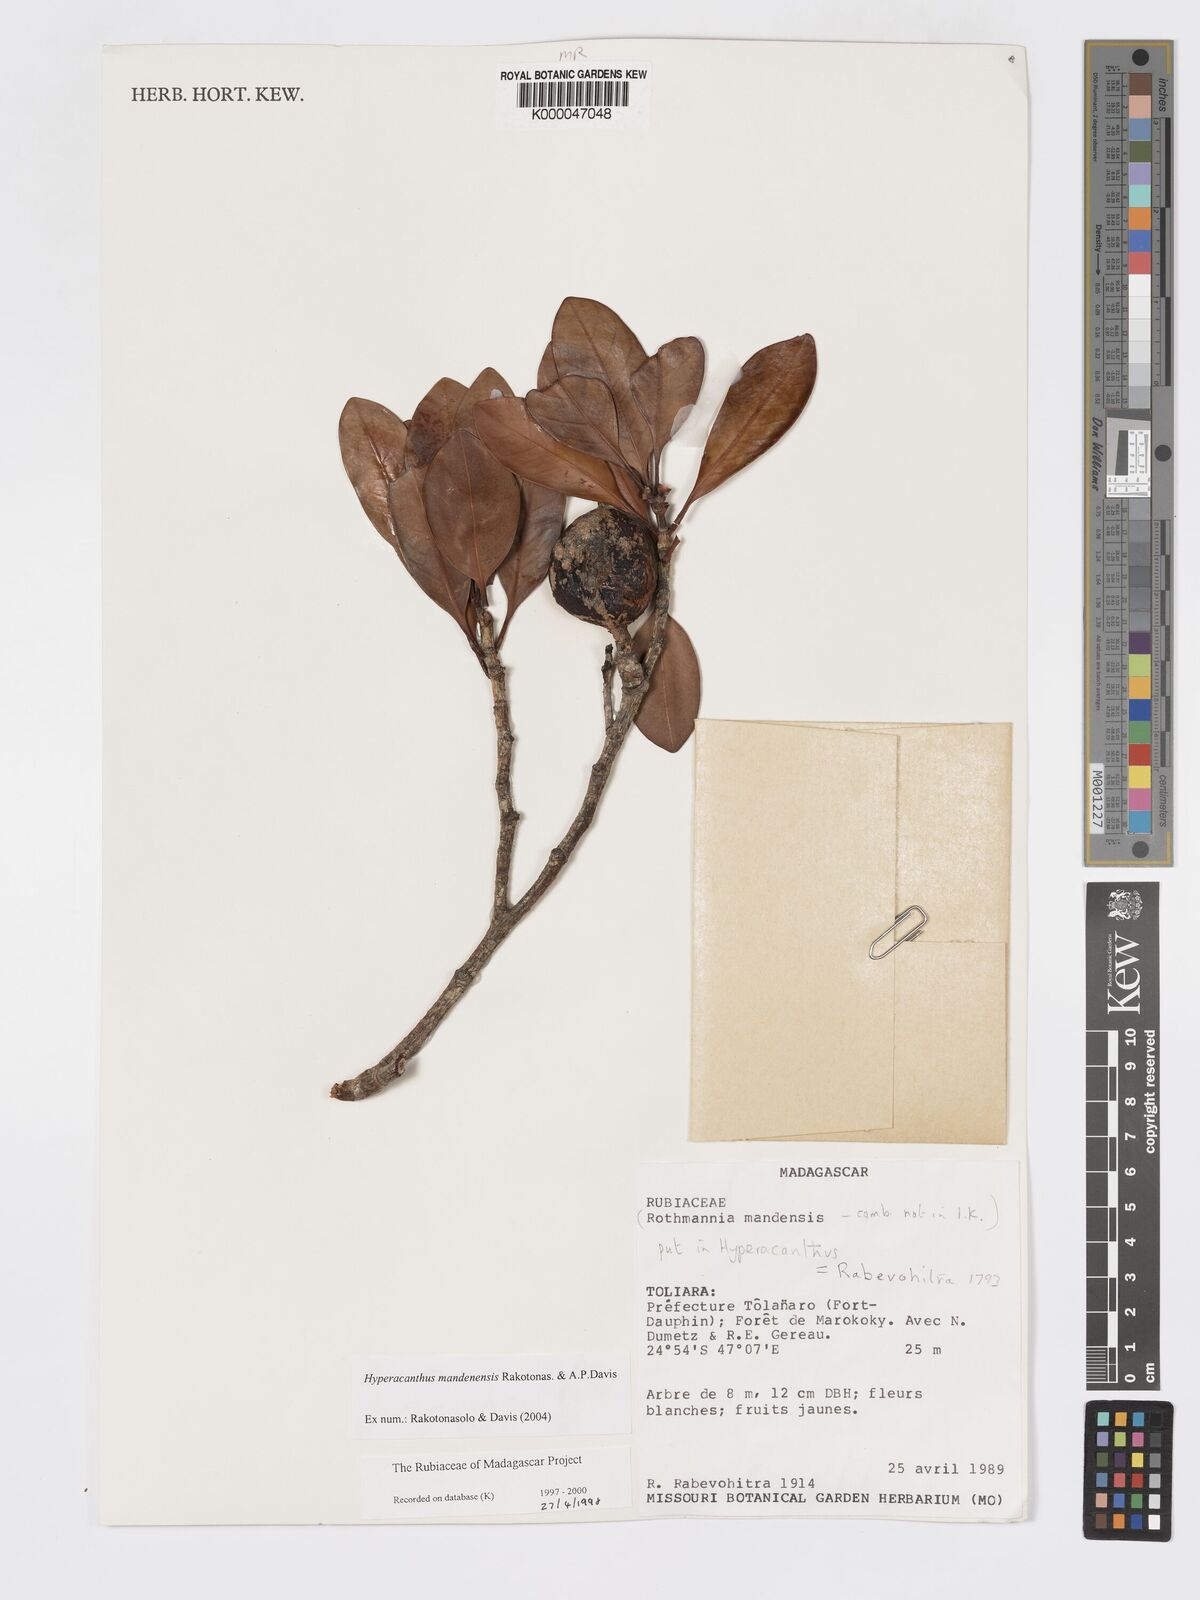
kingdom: Plantae
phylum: Tracheophyta
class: Magnoliopsida
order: Gentianales
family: Rubiaceae
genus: Hyperacanthus
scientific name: Hyperacanthus mandenensis
